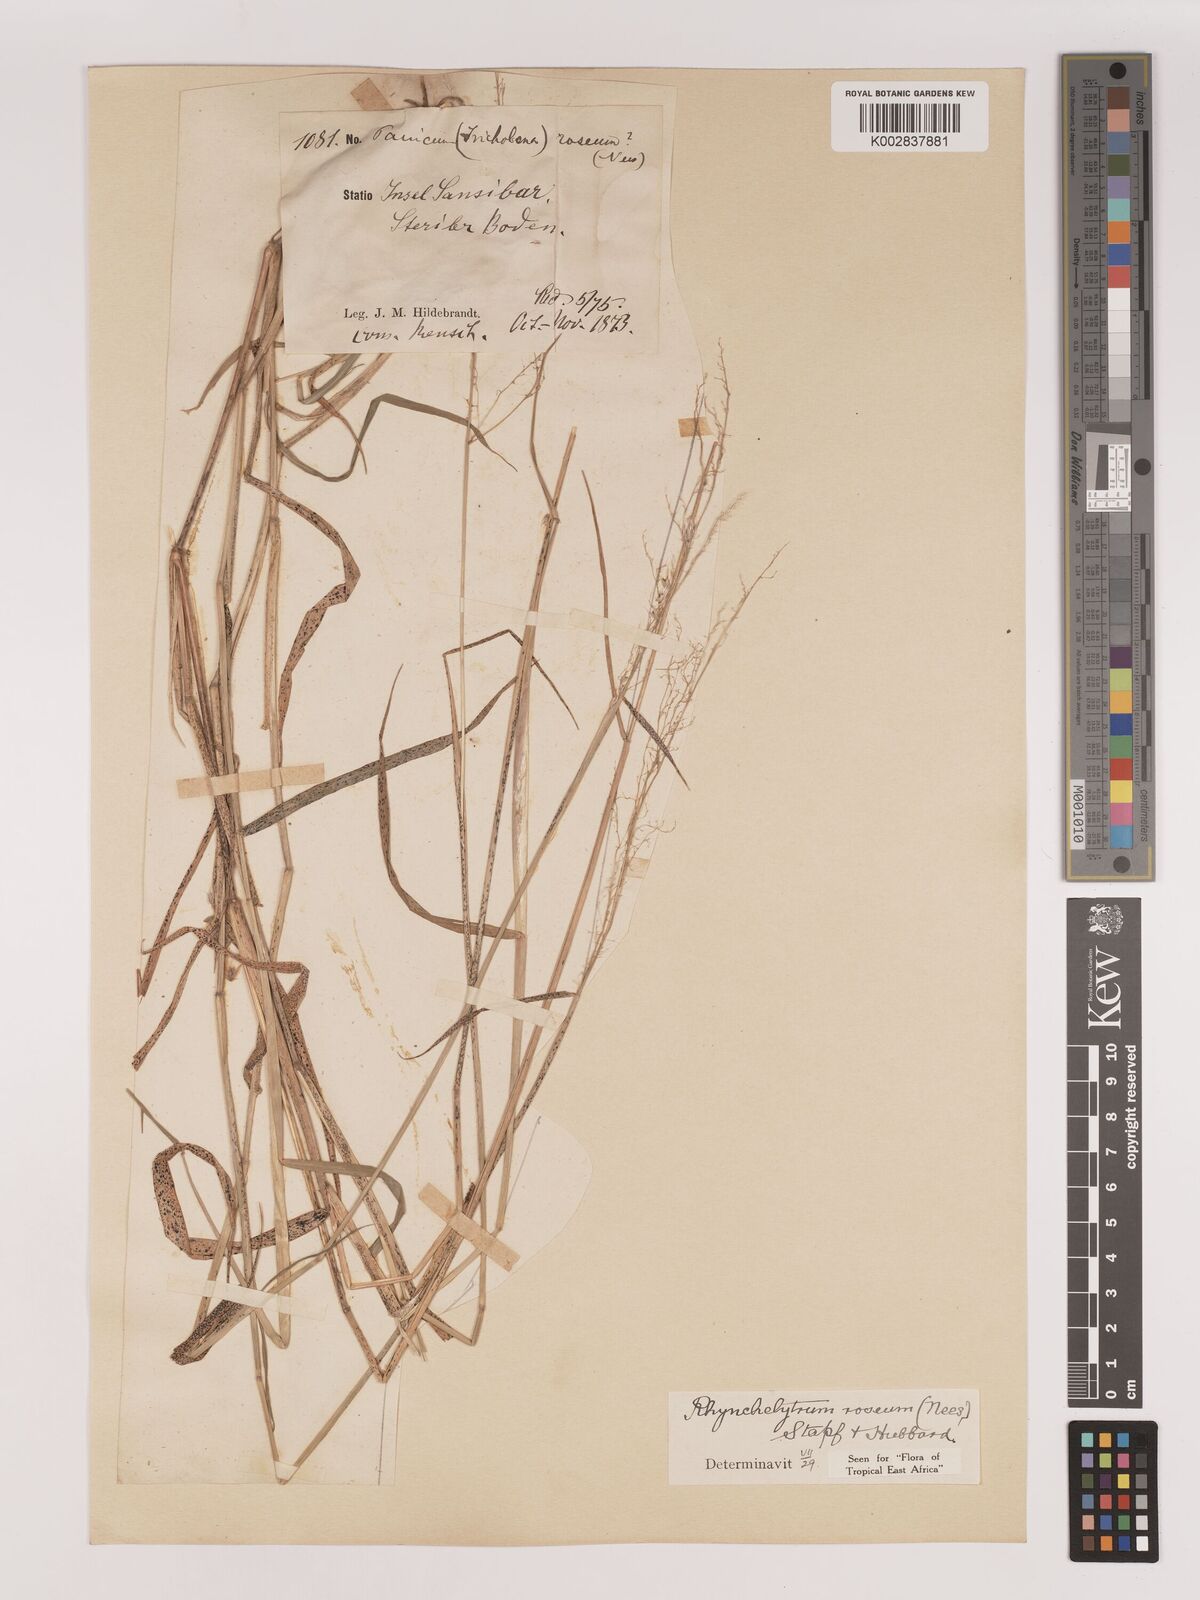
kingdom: Plantae
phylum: Tracheophyta
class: Liliopsida
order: Poales
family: Poaceae
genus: Melinis
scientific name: Melinis repens
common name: Rose natal grass
